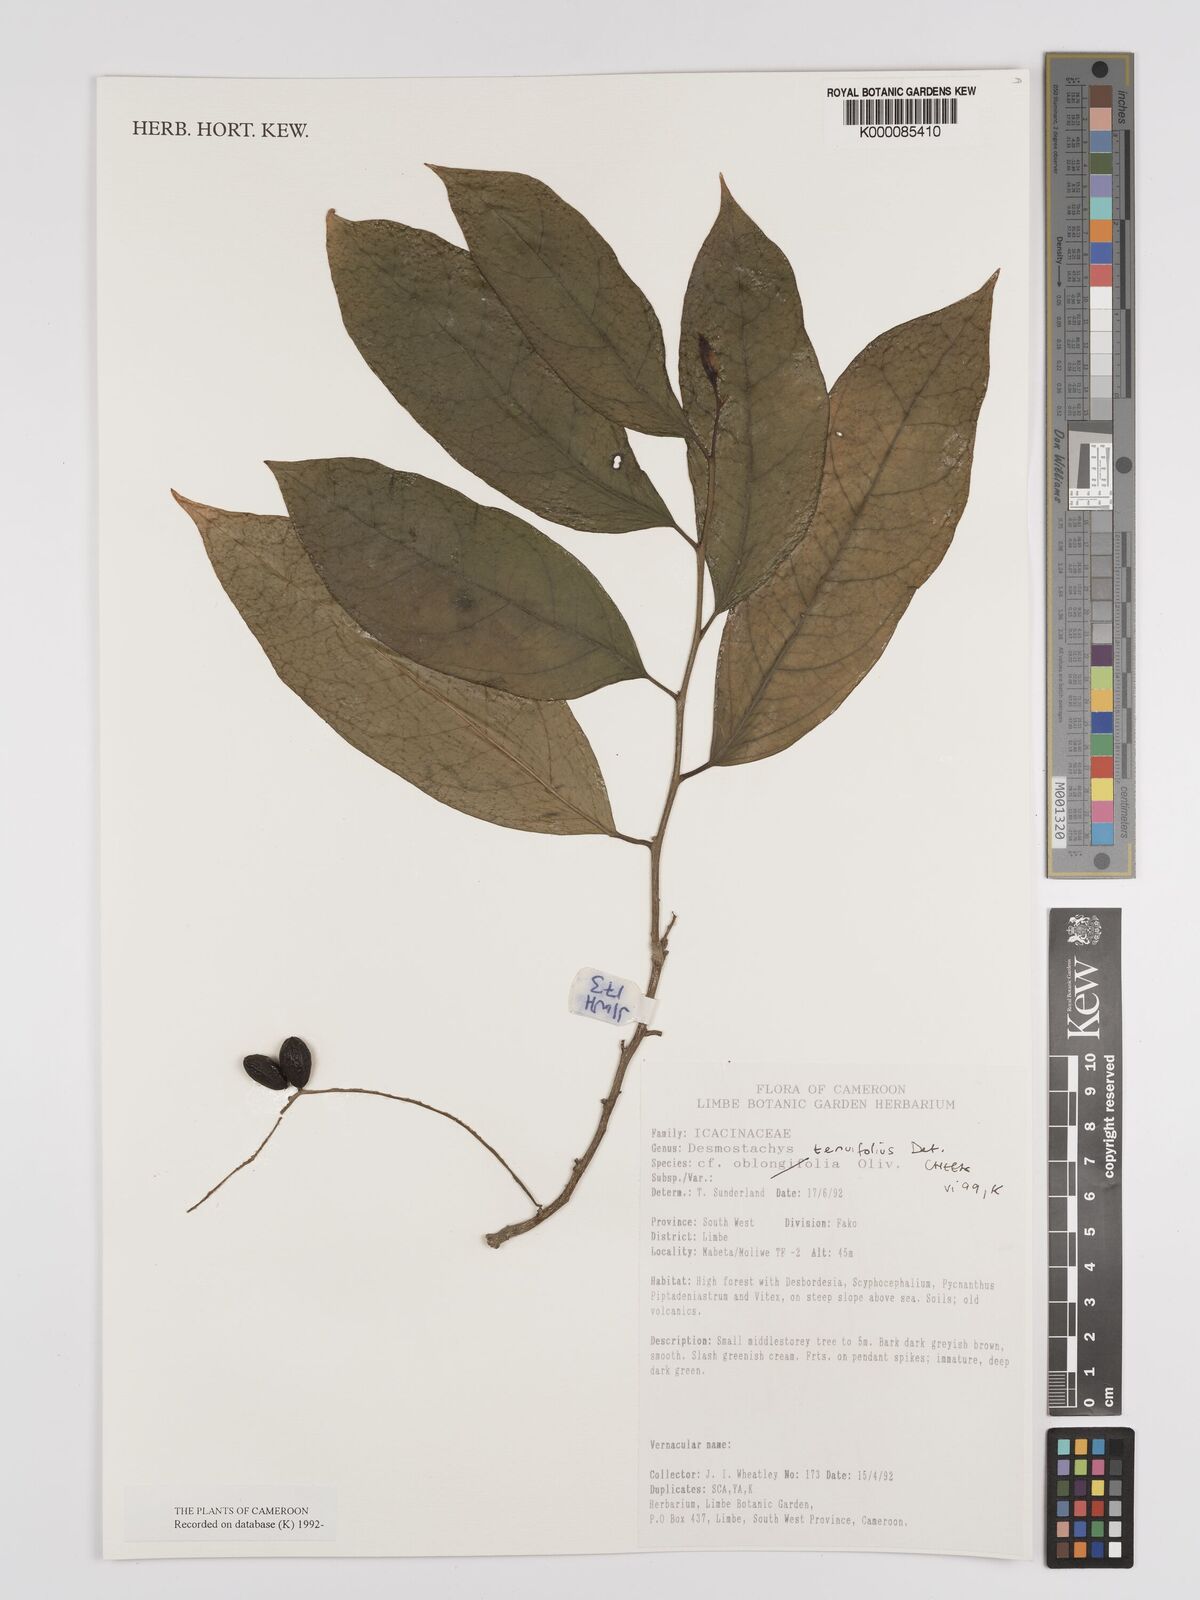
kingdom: Plantae
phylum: Tracheophyta
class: Magnoliopsida
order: Icacinales
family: Icacinaceae
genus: Vadensea
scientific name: Vadensea tenuifolia
